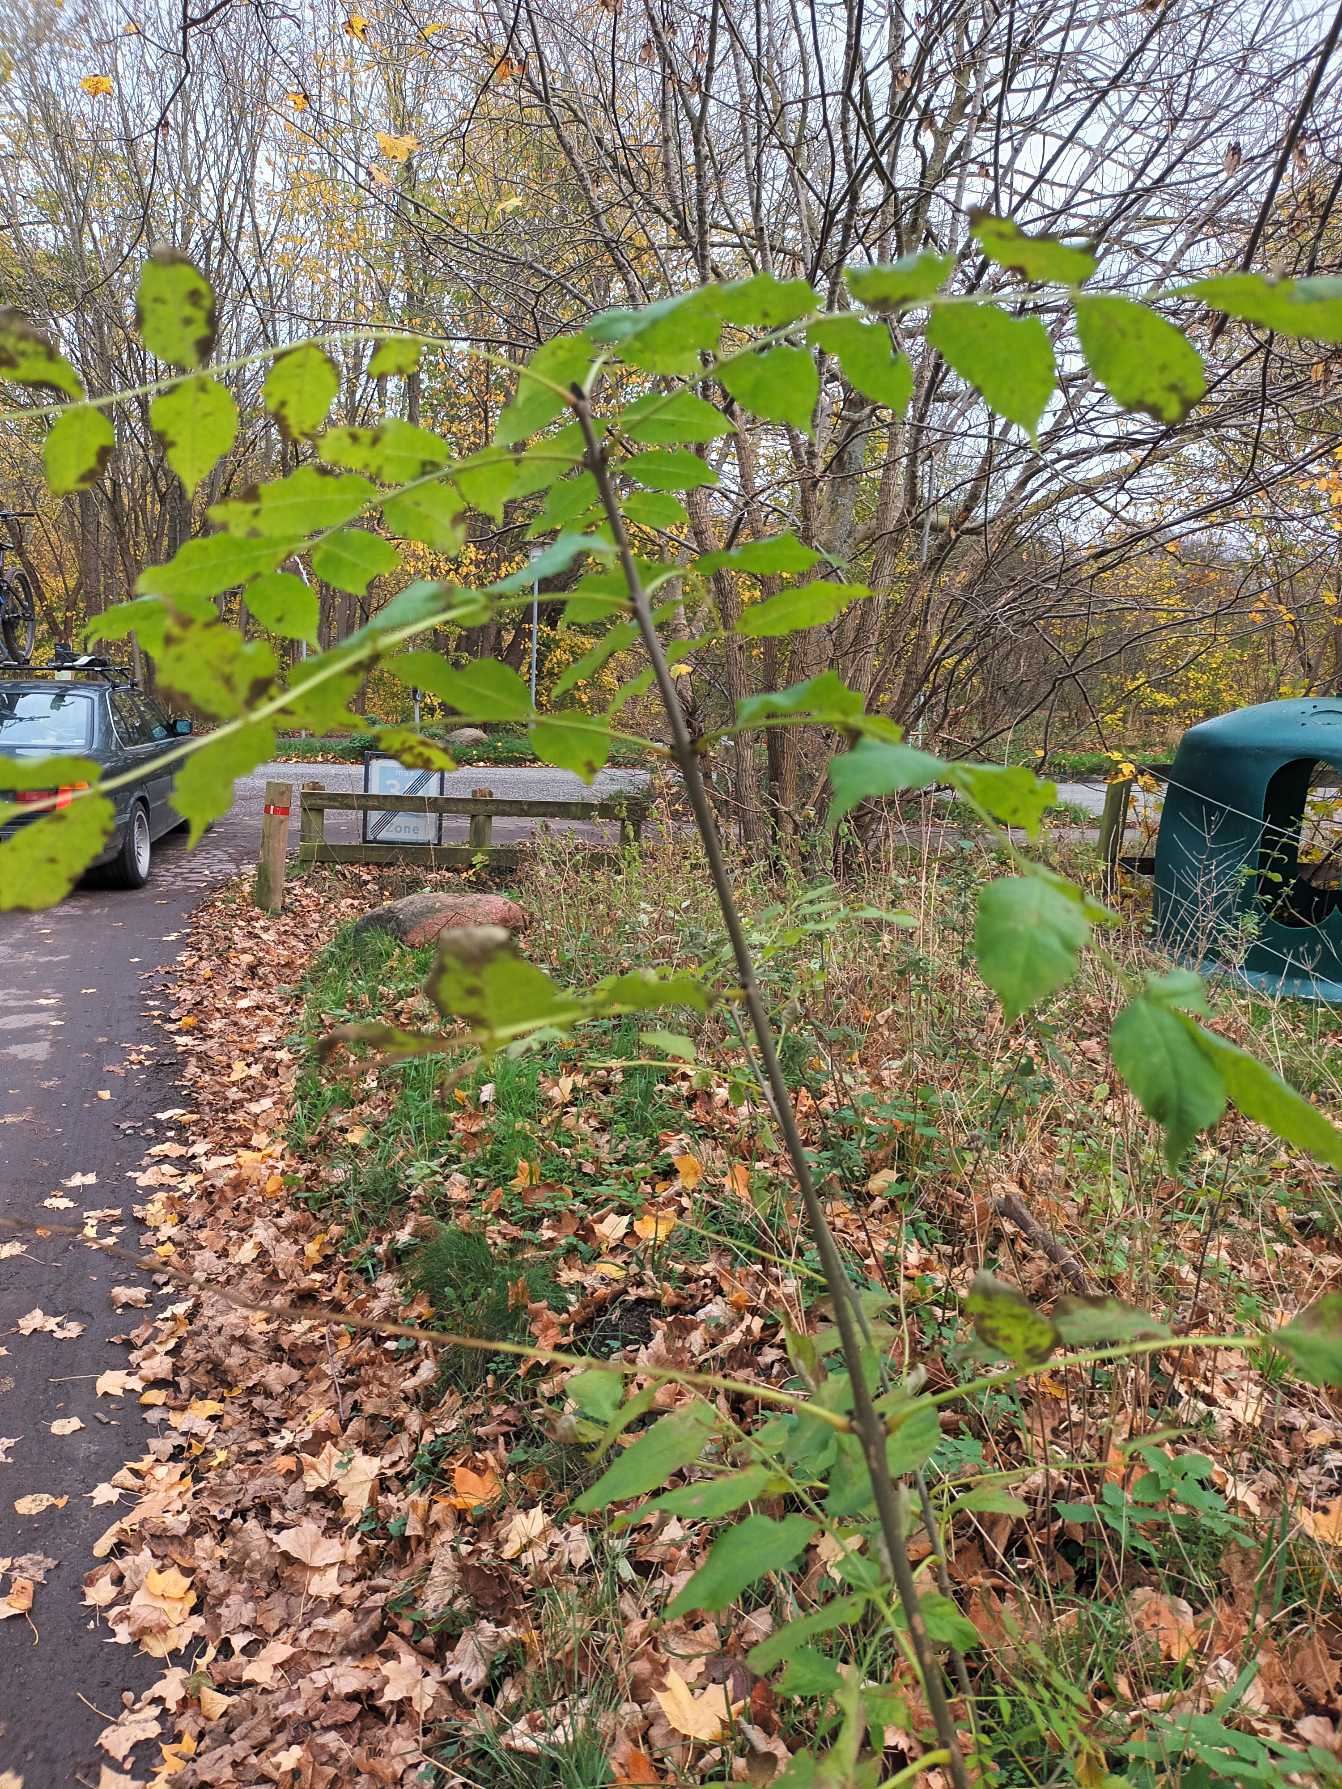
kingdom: Plantae
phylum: Tracheophyta
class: Magnoliopsida
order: Lamiales
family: Oleaceae
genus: Fraxinus
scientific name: Fraxinus excelsior
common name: Ask
